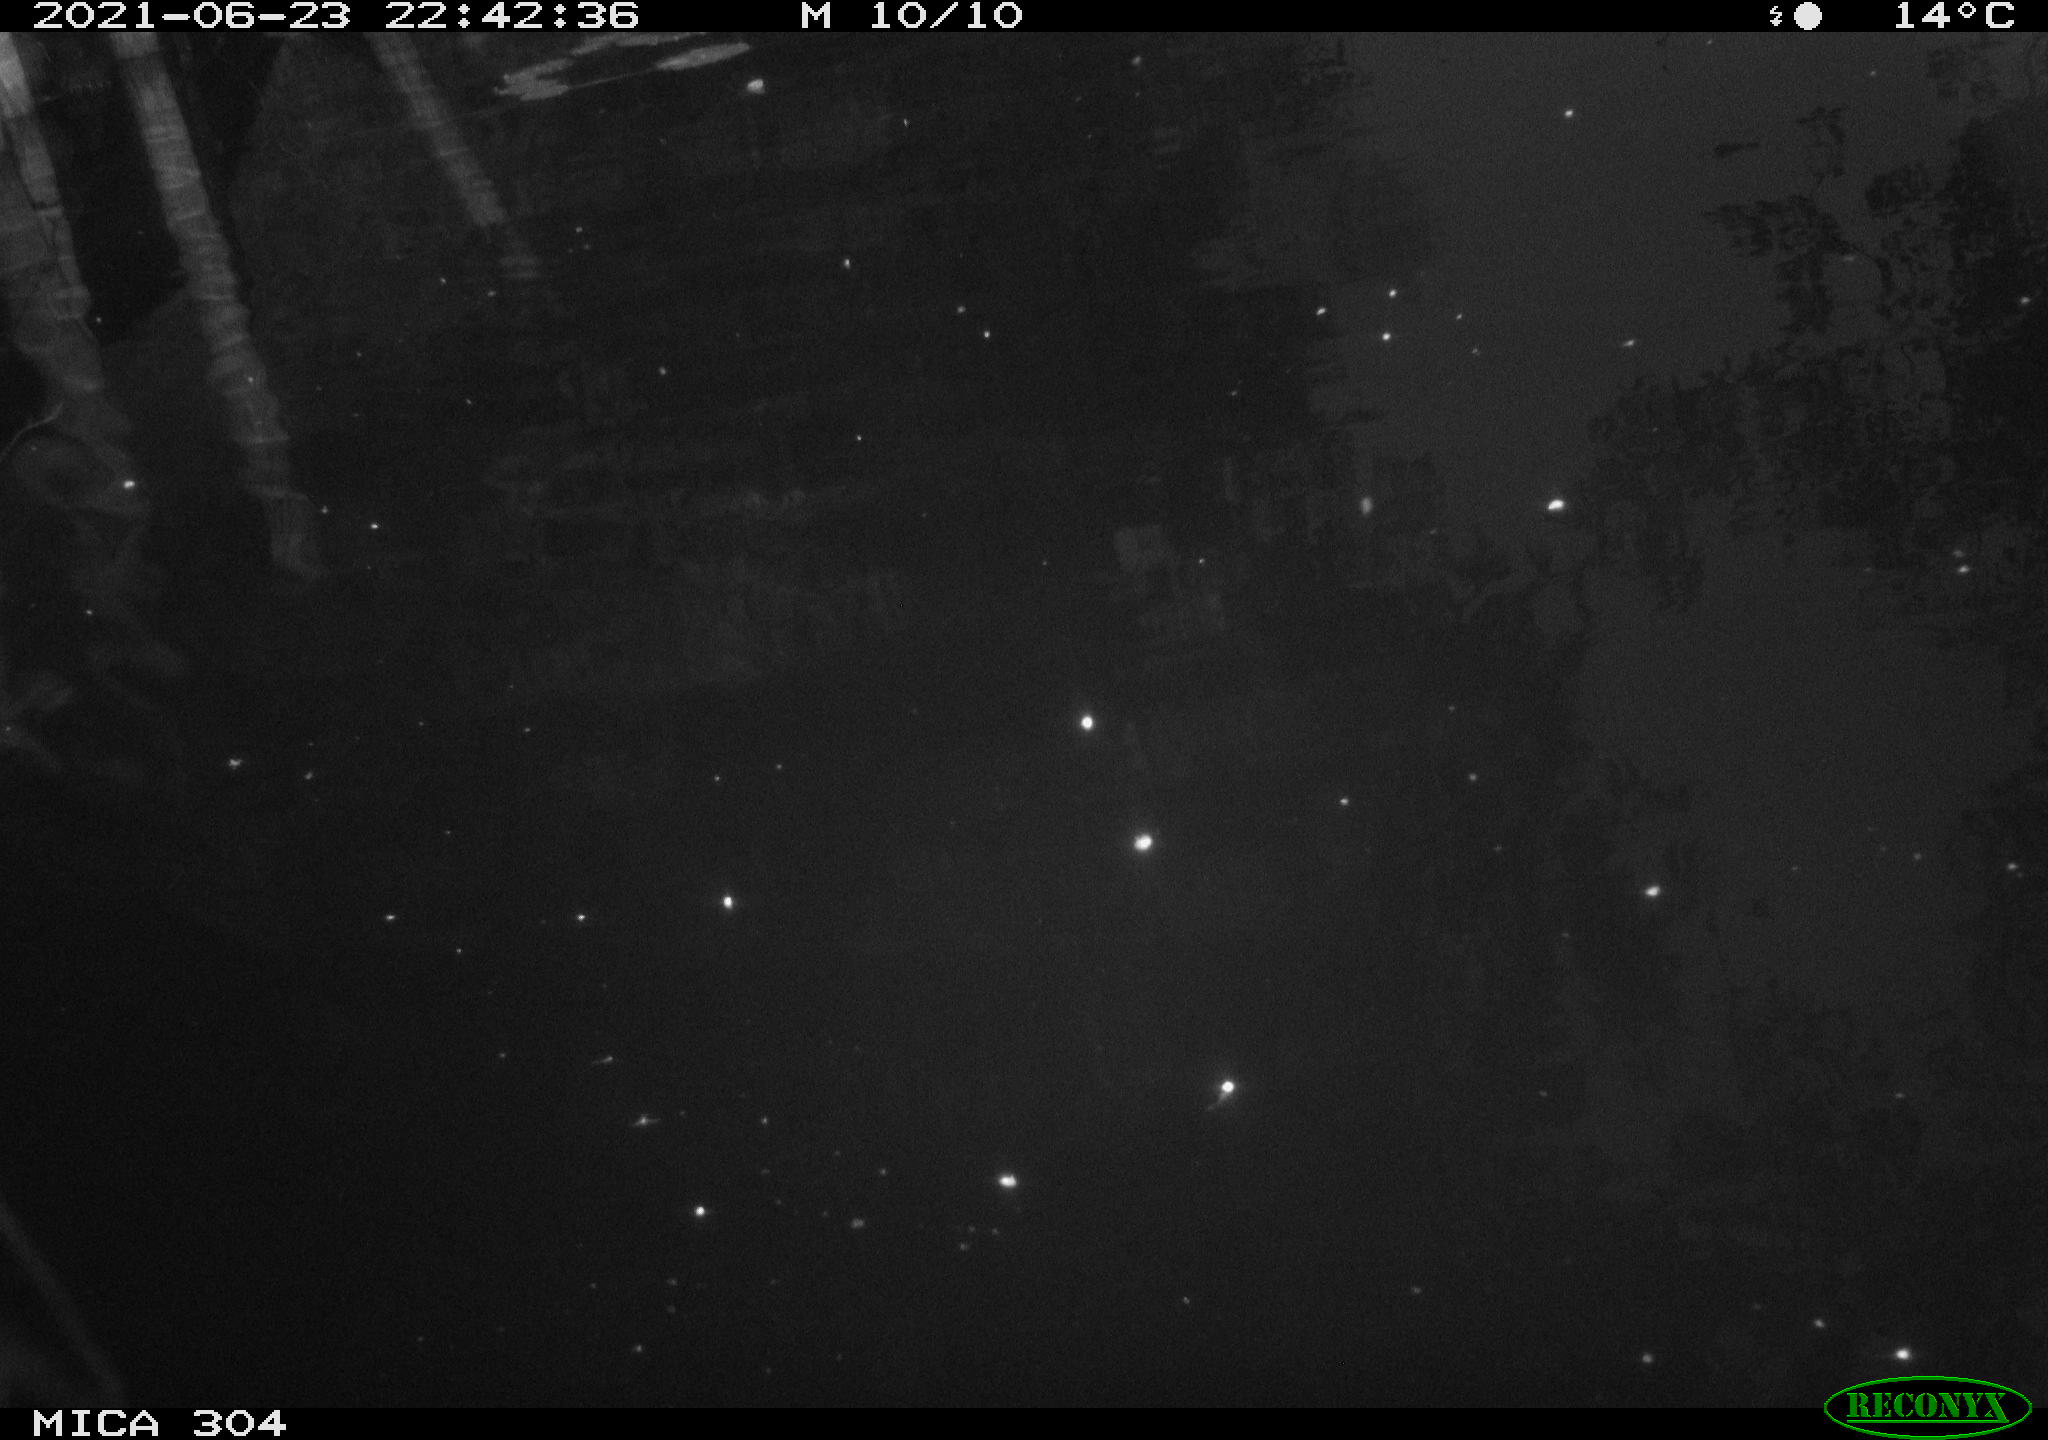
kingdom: Animalia
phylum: Chordata
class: Aves
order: Anseriformes
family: Anatidae
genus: Anas
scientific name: Anas platyrhynchos
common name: Mallard
